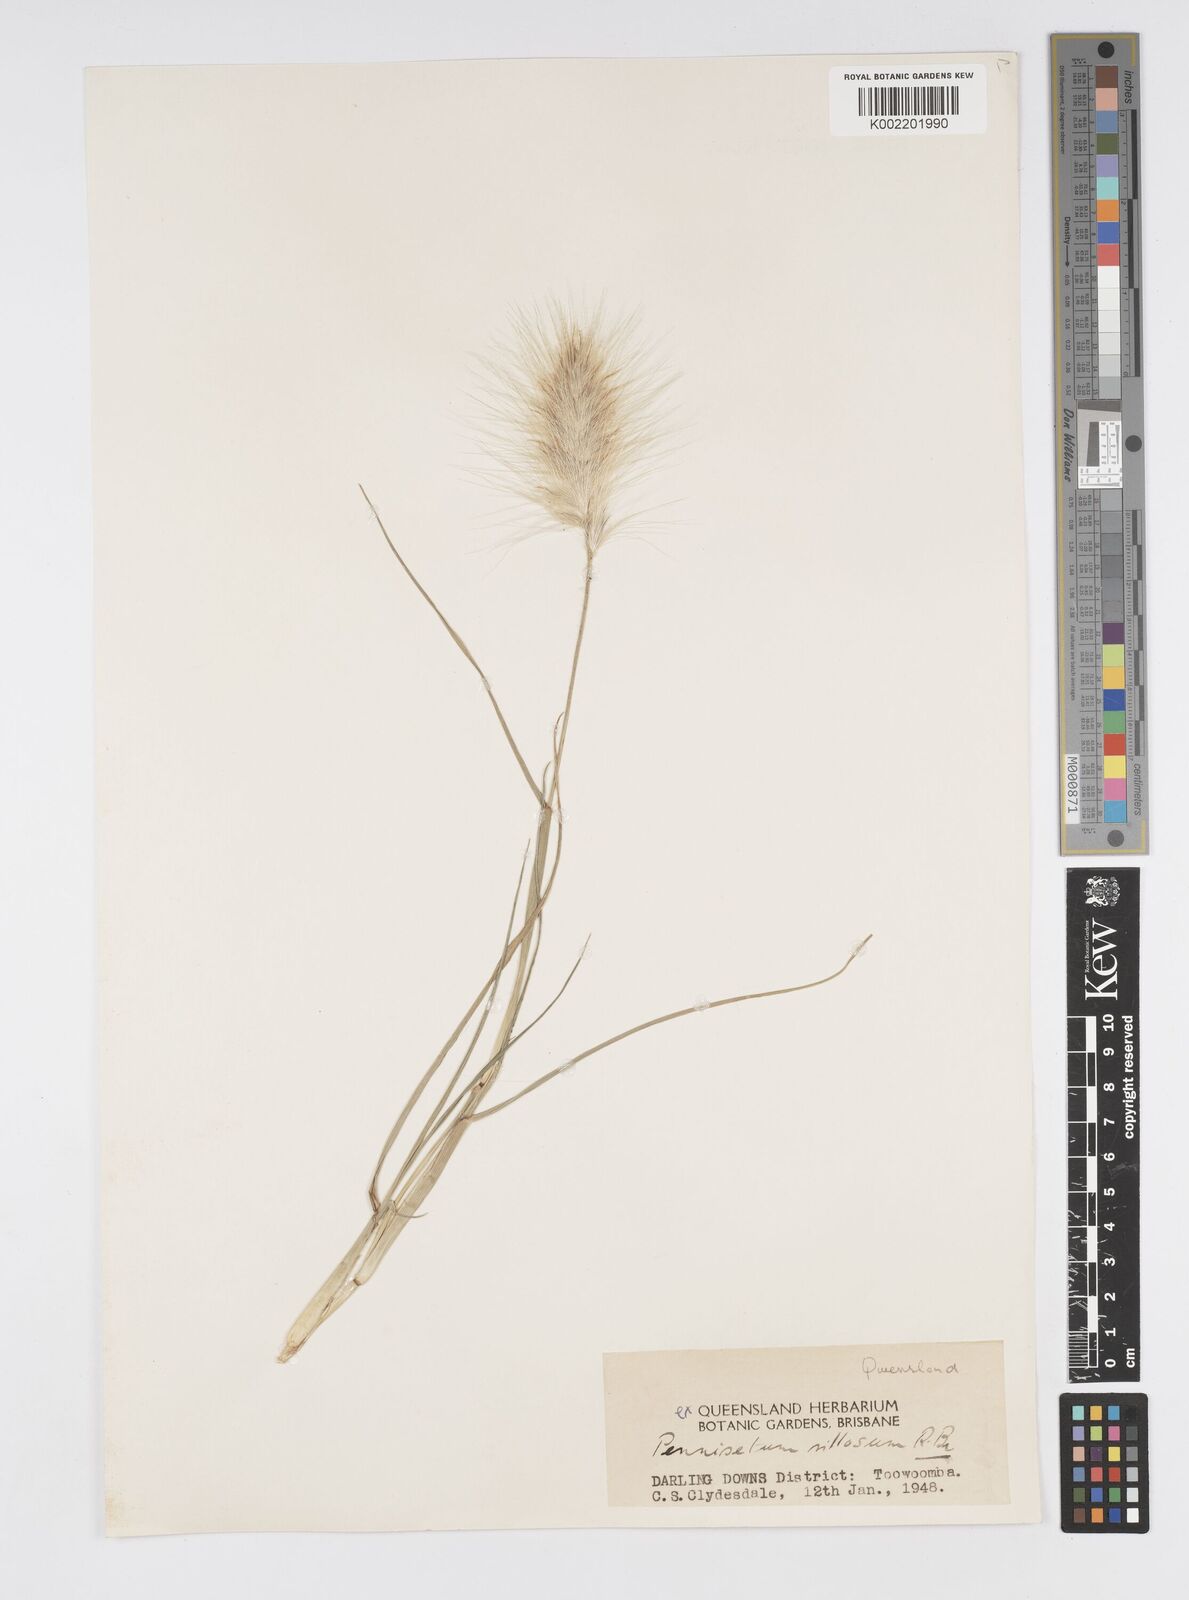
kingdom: Plantae
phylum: Tracheophyta
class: Liliopsida
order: Poales
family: Poaceae
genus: Cenchrus
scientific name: Cenchrus longisetus
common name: Feathertop
